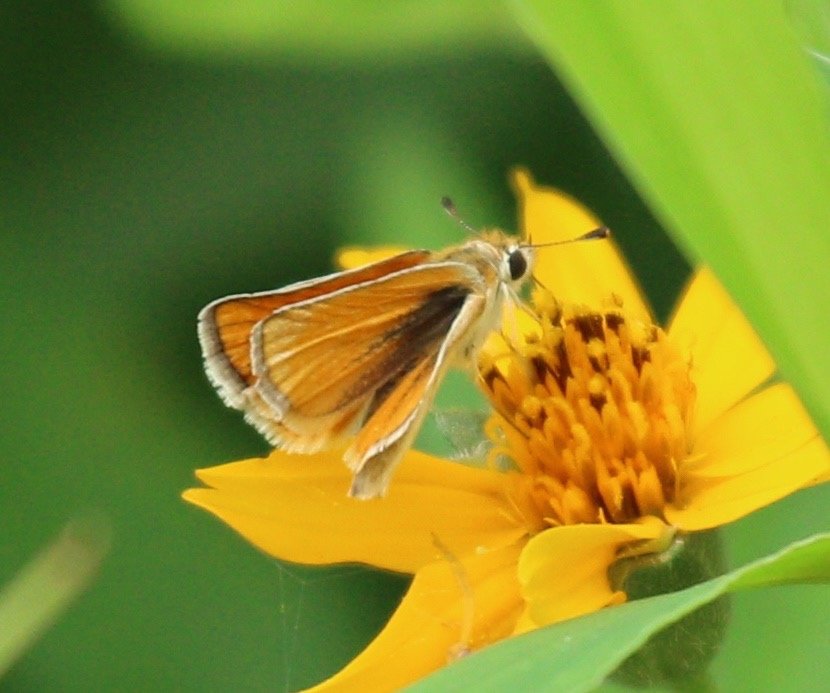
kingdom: Animalia
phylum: Arthropoda
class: Insecta
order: Lepidoptera
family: Hesperiidae
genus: Copaeodes
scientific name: Copaeodes minima
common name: Southern Skipperling
